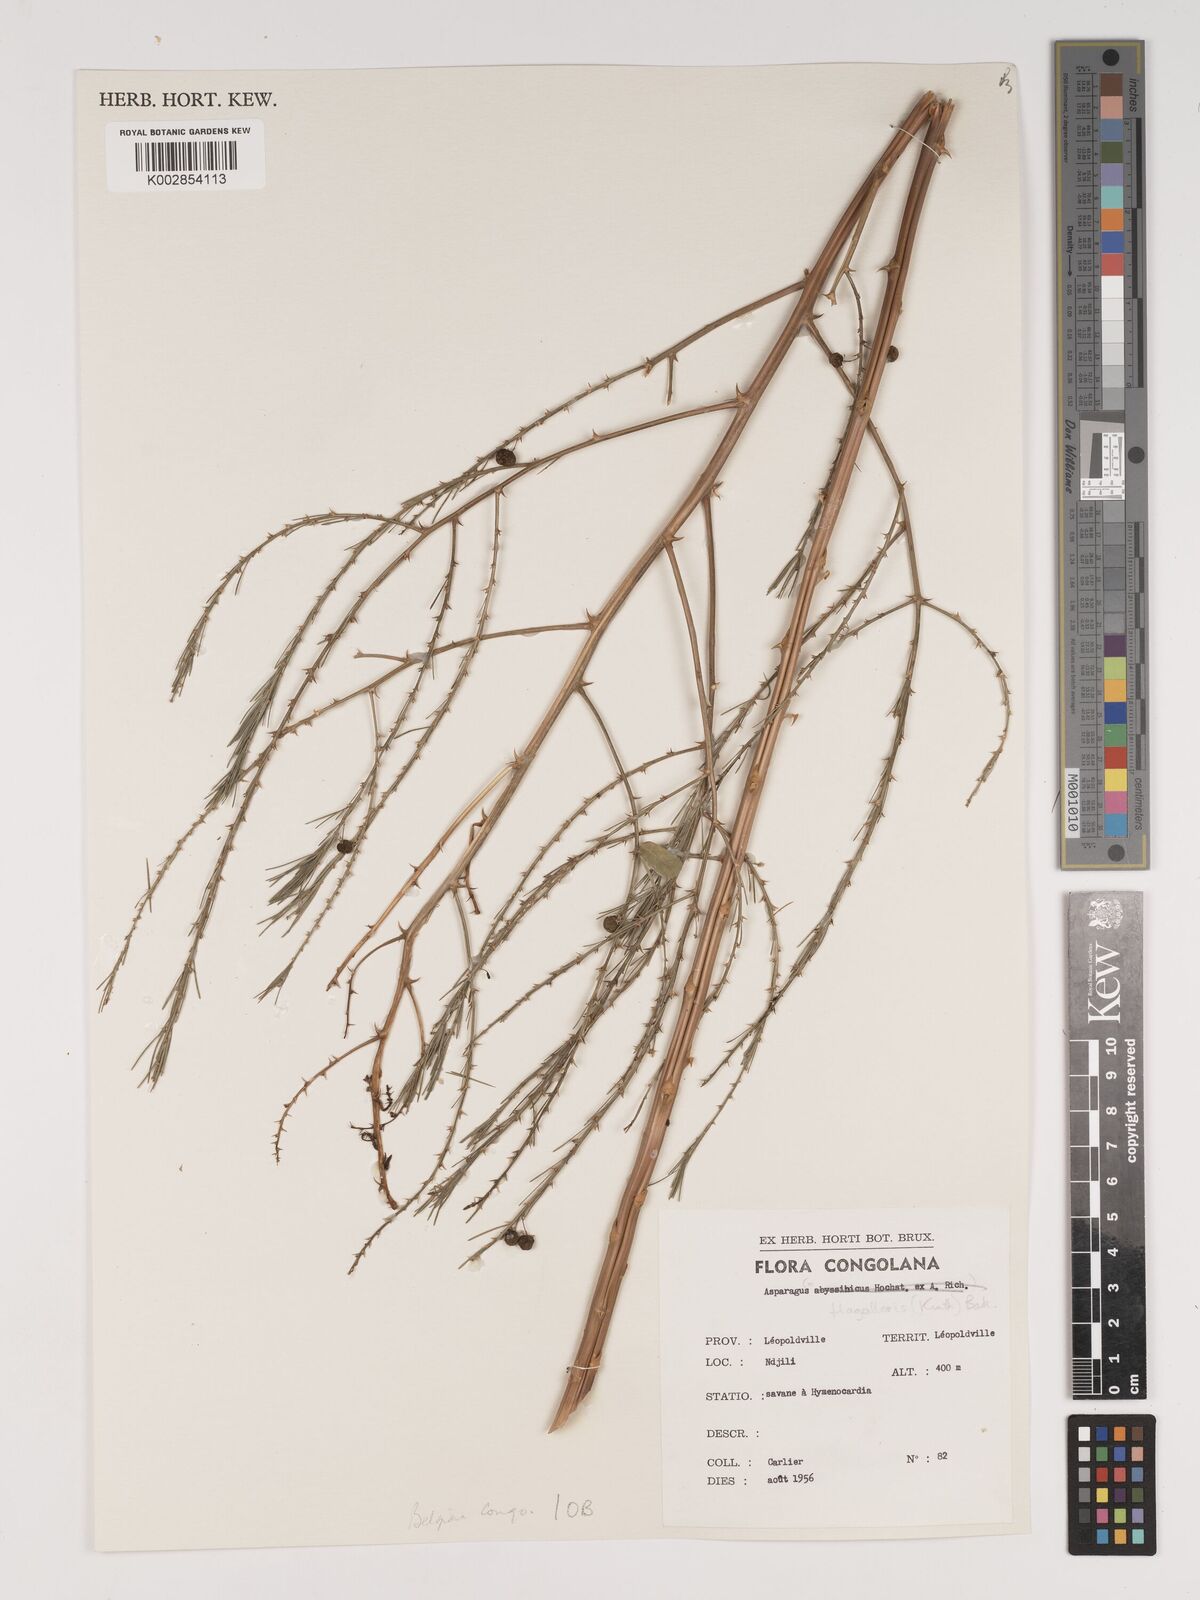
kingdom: Plantae
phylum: Tracheophyta
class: Liliopsida
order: Asparagales
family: Asparagaceae
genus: Asparagus
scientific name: Asparagus flagellaris
